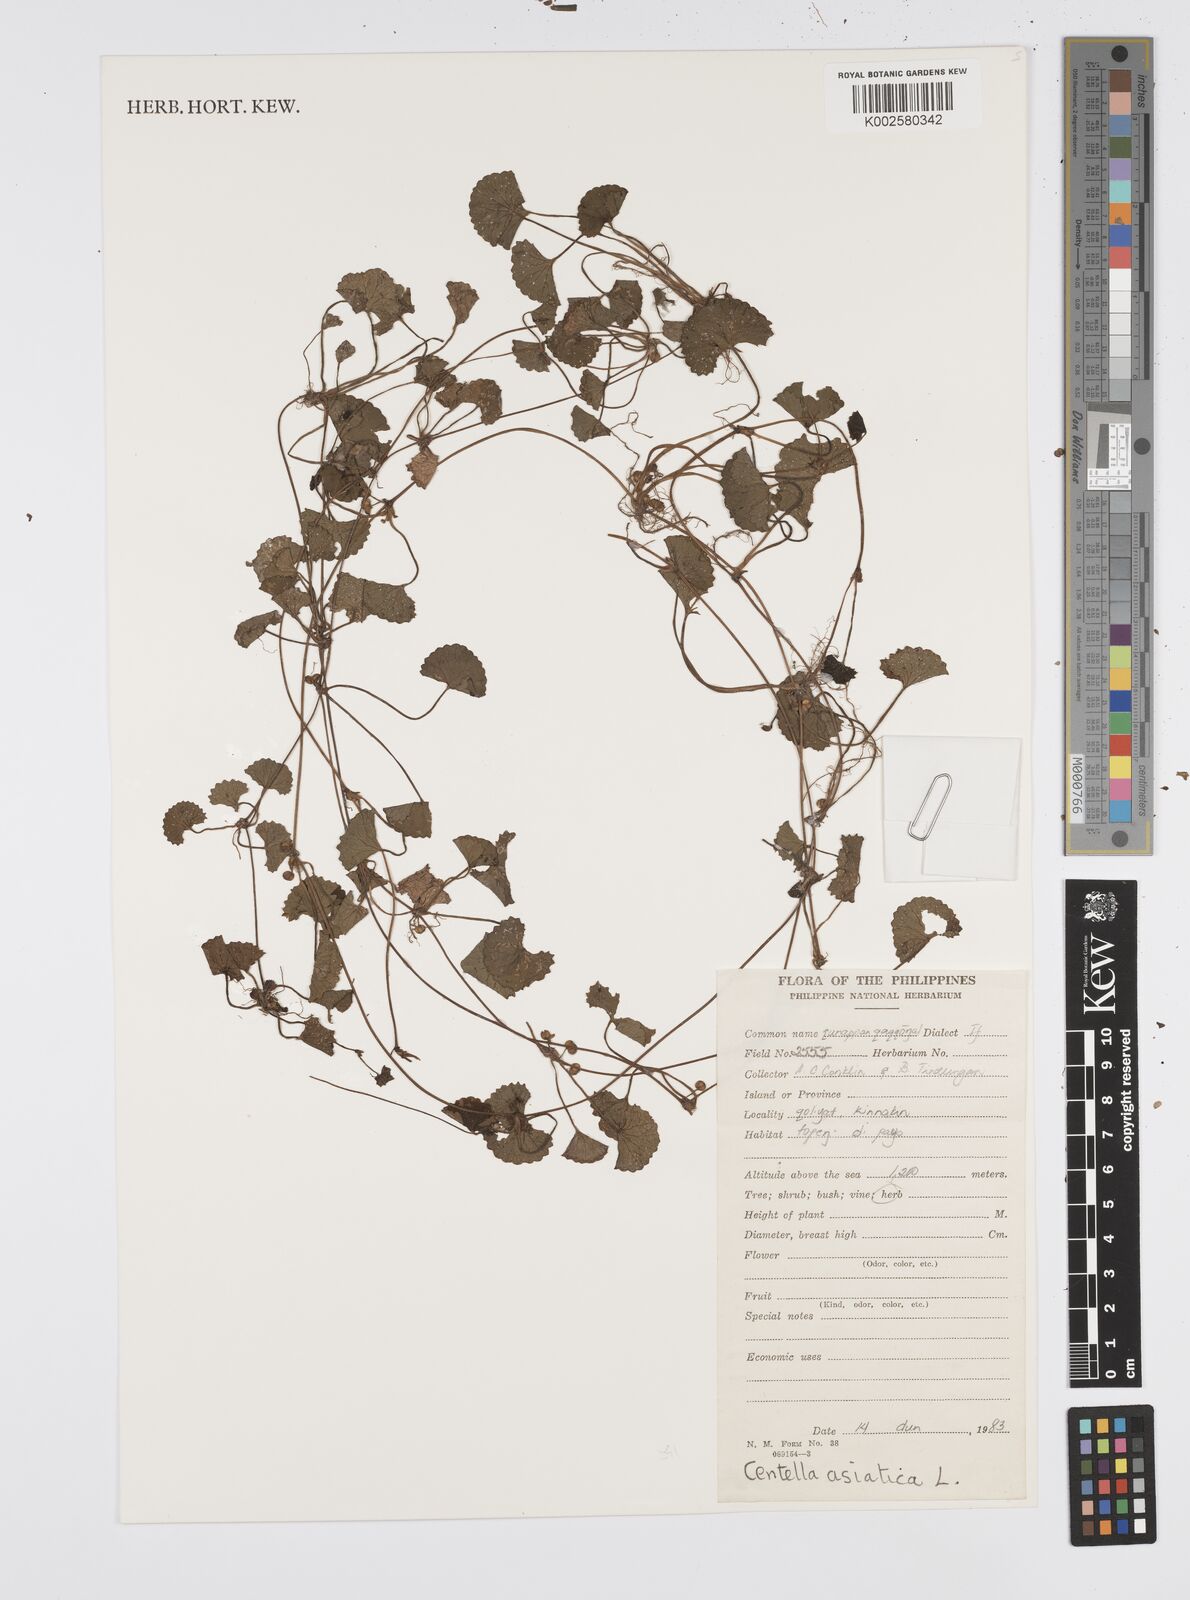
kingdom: Plantae
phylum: Tracheophyta
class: Magnoliopsida
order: Apiales
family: Apiaceae
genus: Centella
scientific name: Centella asiatica
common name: Spadeleaf
